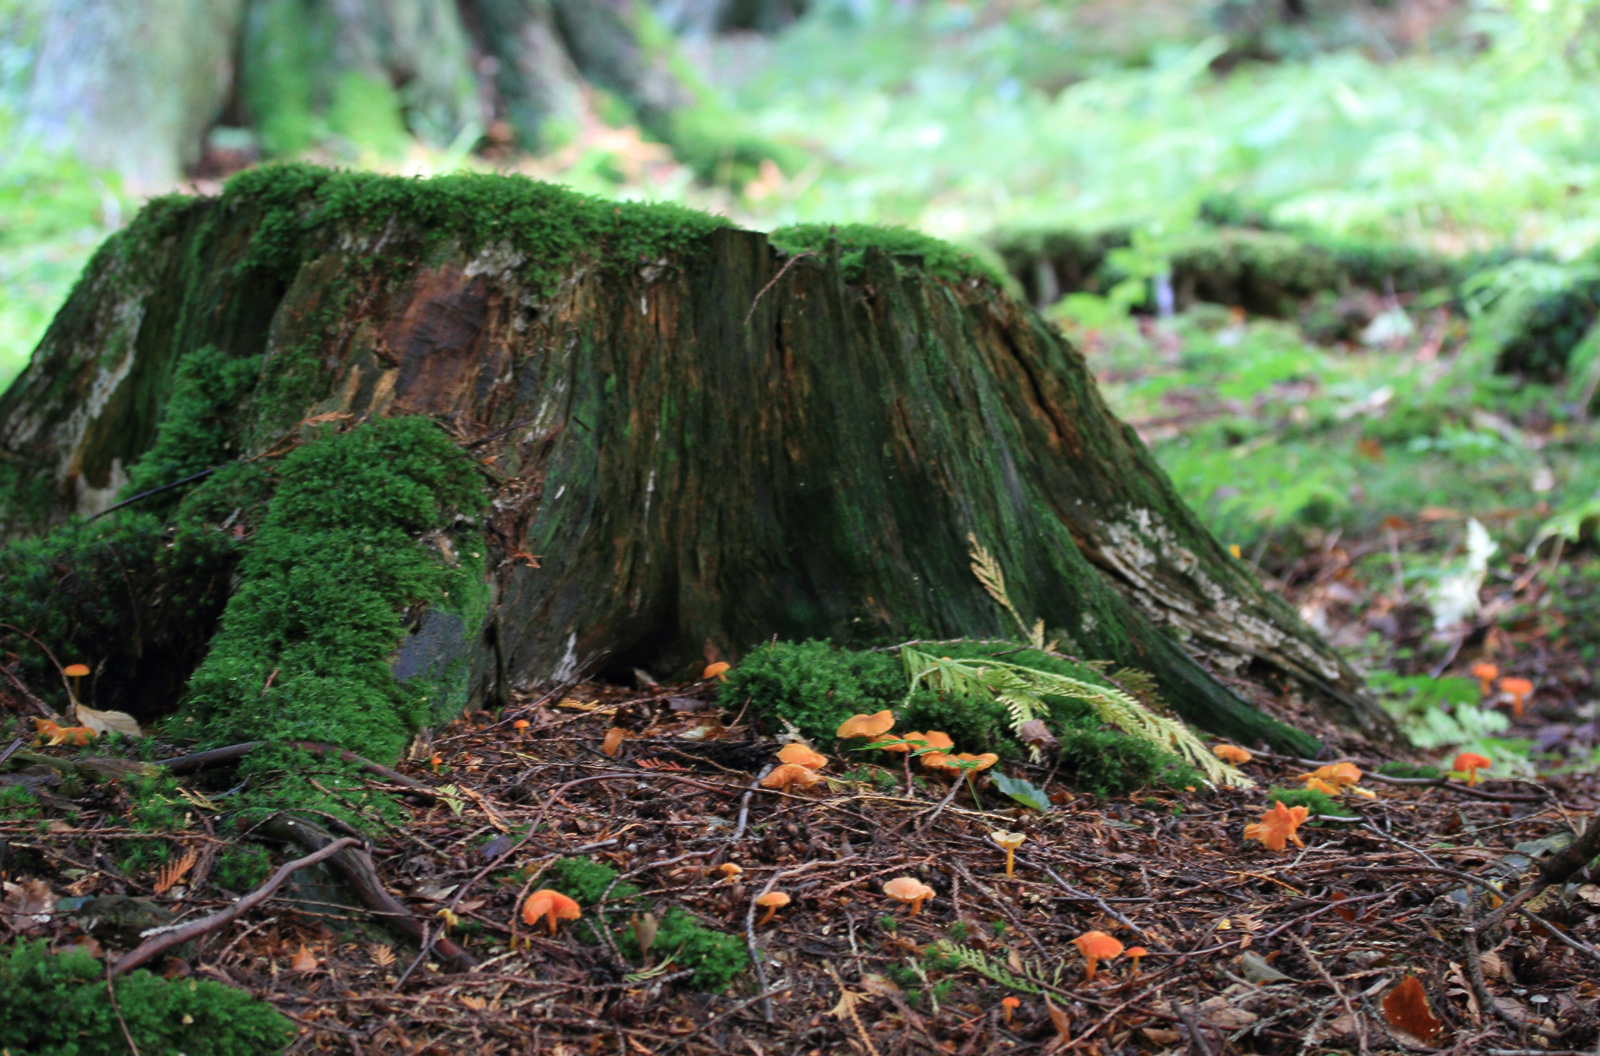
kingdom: Fungi
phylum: Basidiomycota
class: Agaricomycetes
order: Agaricales
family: Hygrophoraceae
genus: Hygrocybe
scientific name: Hygrocybe miniata
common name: mønje-vokshat
